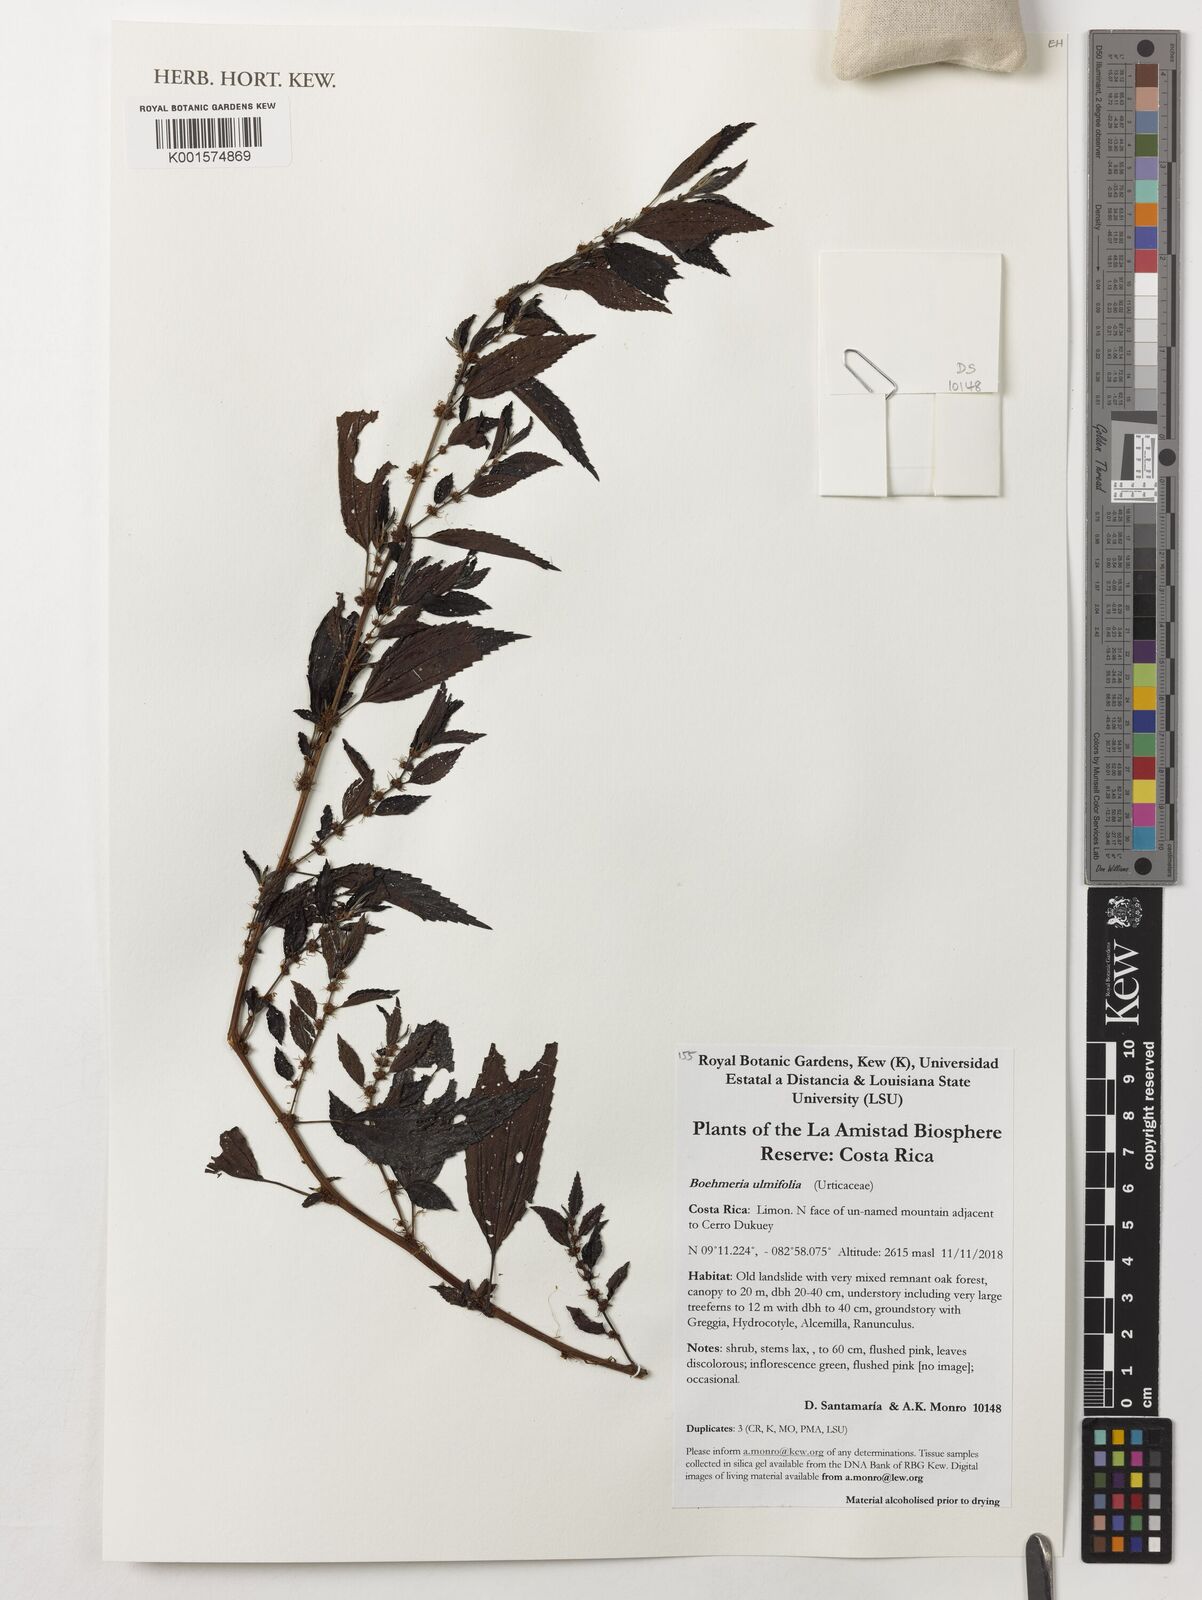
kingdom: Plantae
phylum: Tracheophyta
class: Magnoliopsida
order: Rosales
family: Urticaceae
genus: Boehmeria
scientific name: Boehmeria ulmifolia
